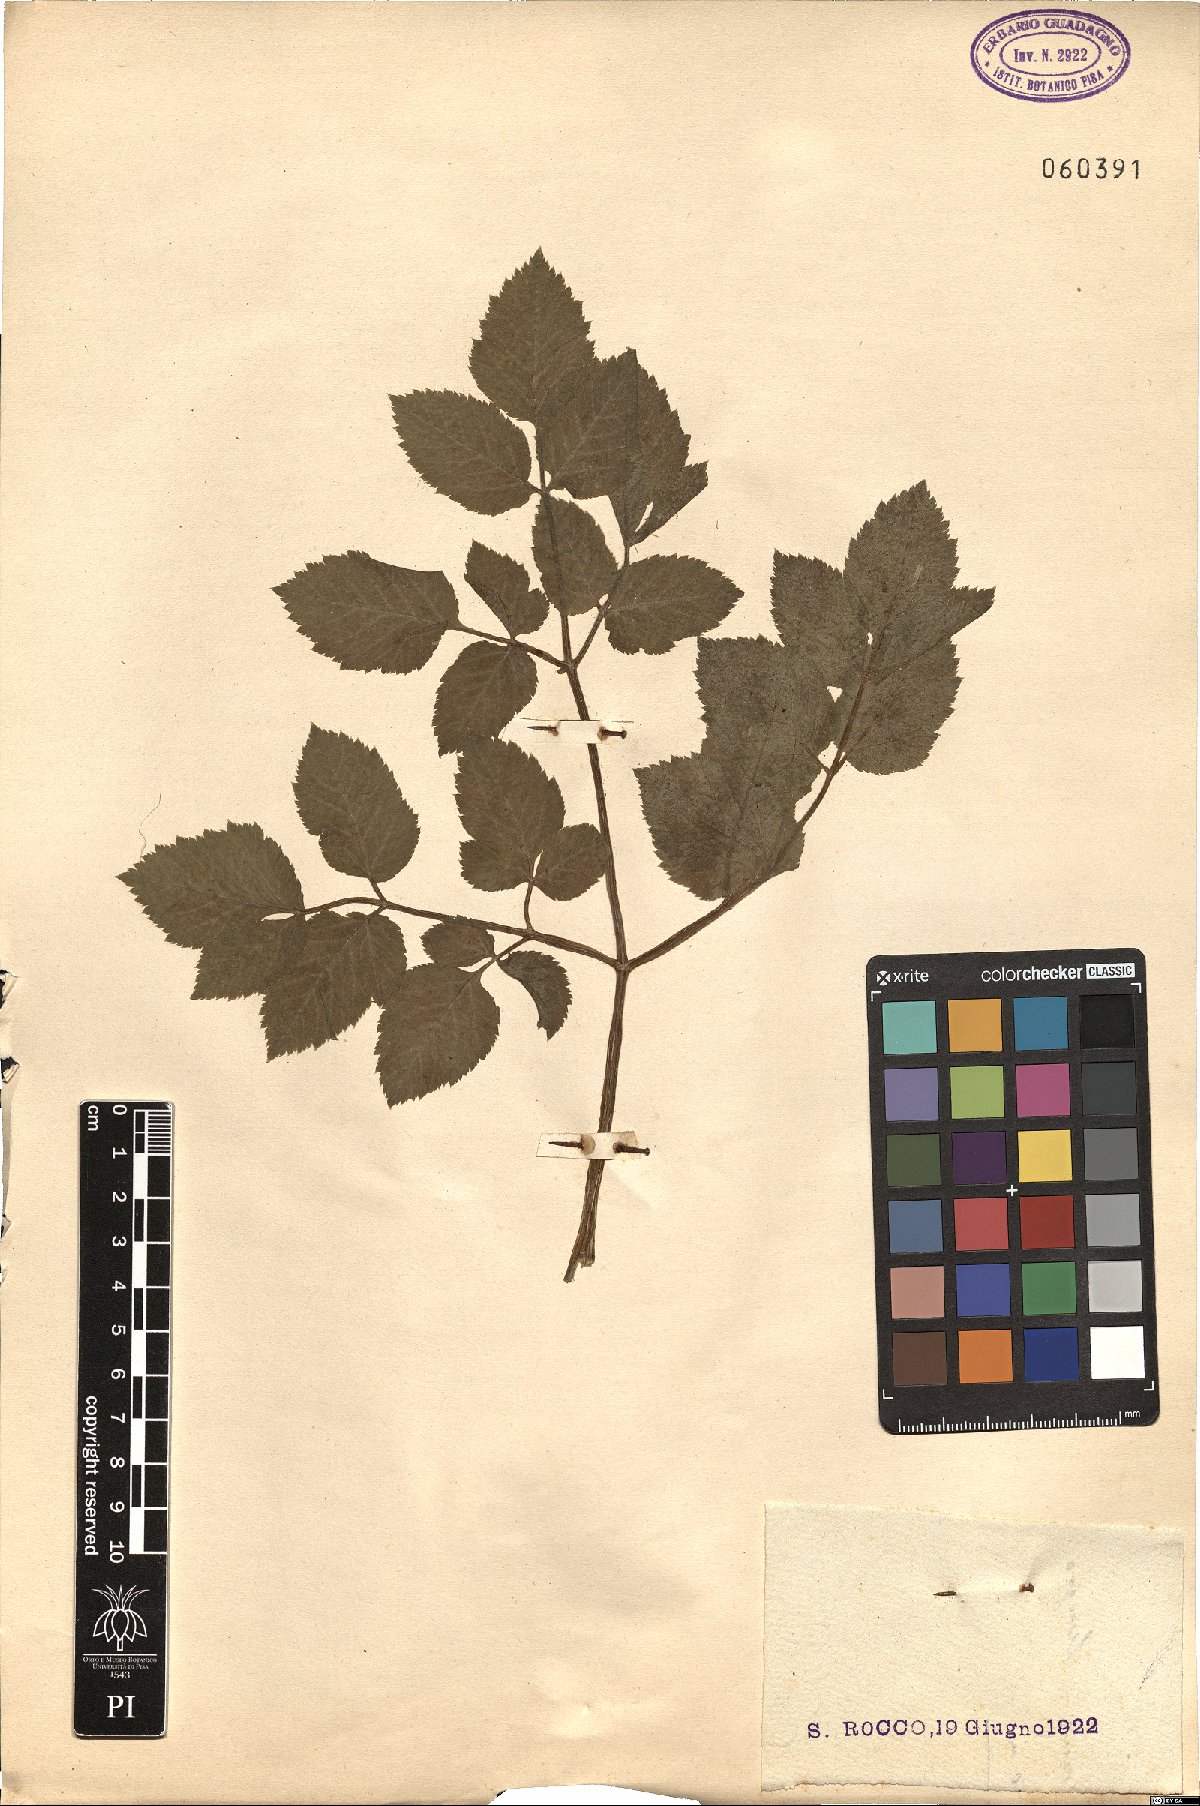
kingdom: Plantae
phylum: Tracheophyta
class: Magnoliopsida
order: Rosales
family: Rosaceae
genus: Rubus
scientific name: Rubus
